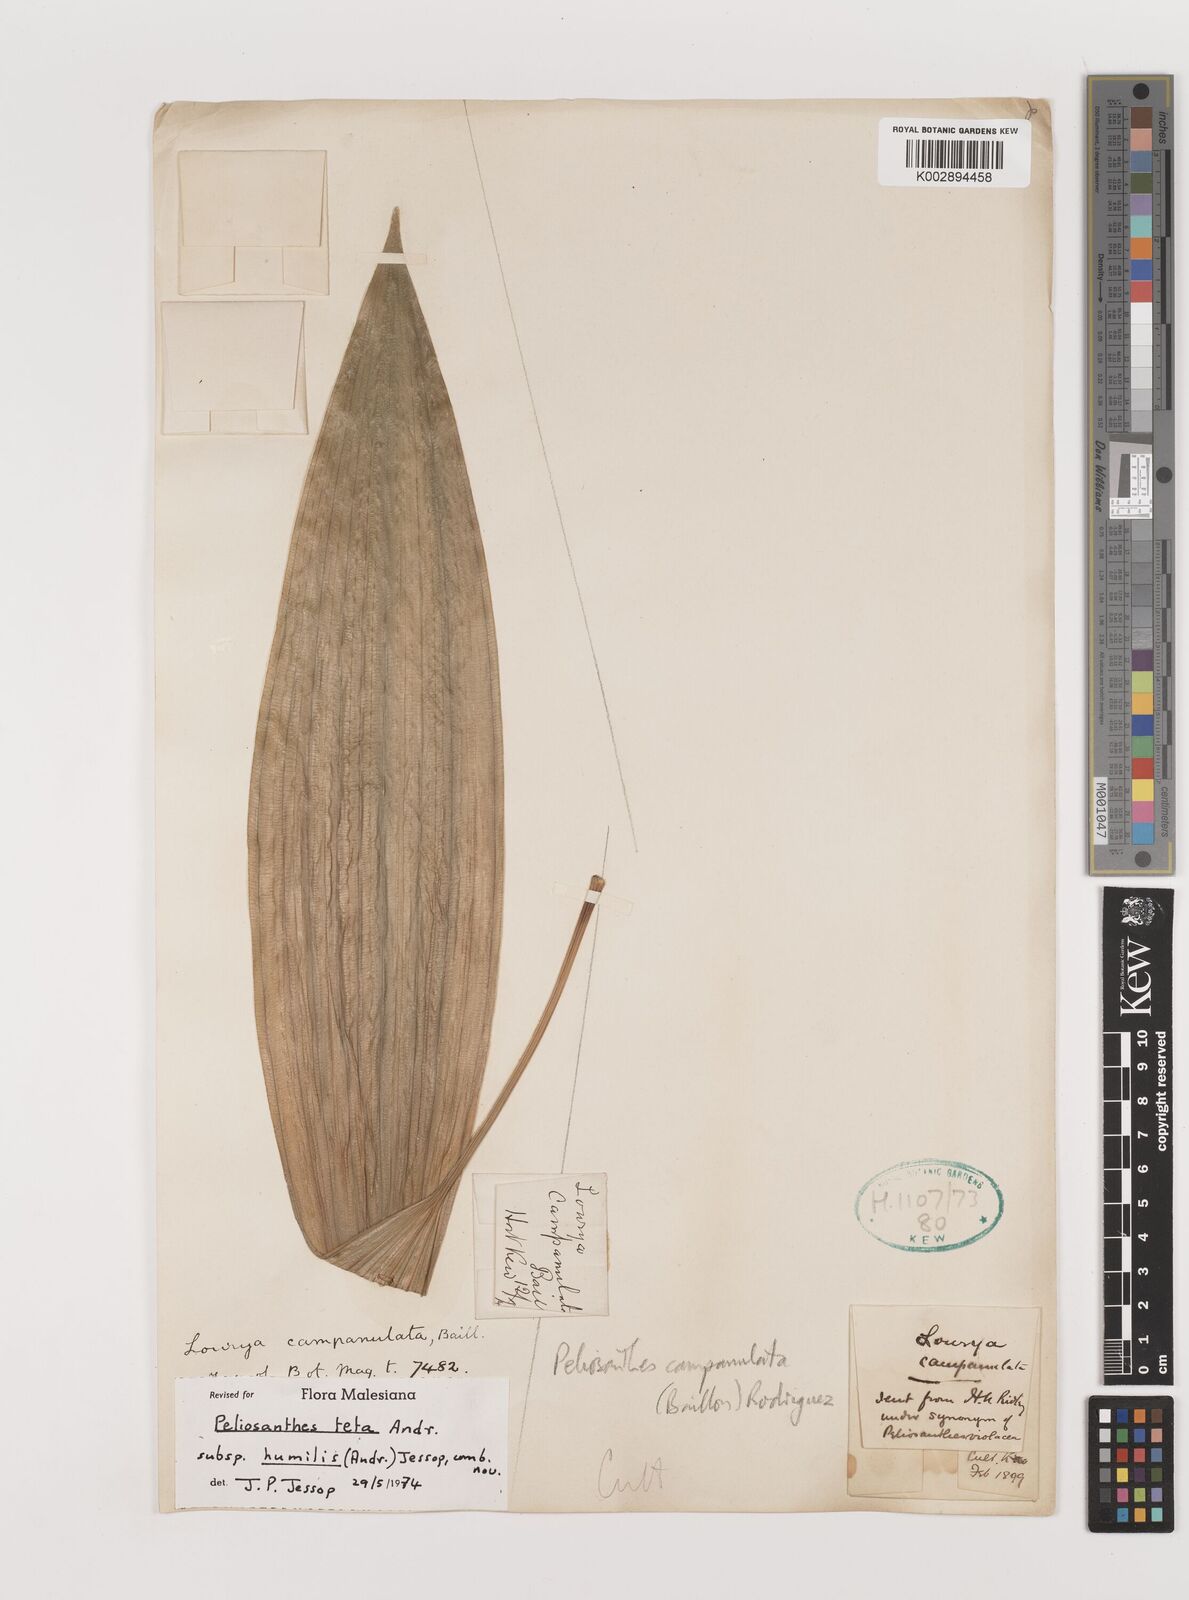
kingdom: Plantae
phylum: Tracheophyta
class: Liliopsida
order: Asparagales
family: Asparagaceae
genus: Peliosanthes
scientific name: Peliosanthes teta
